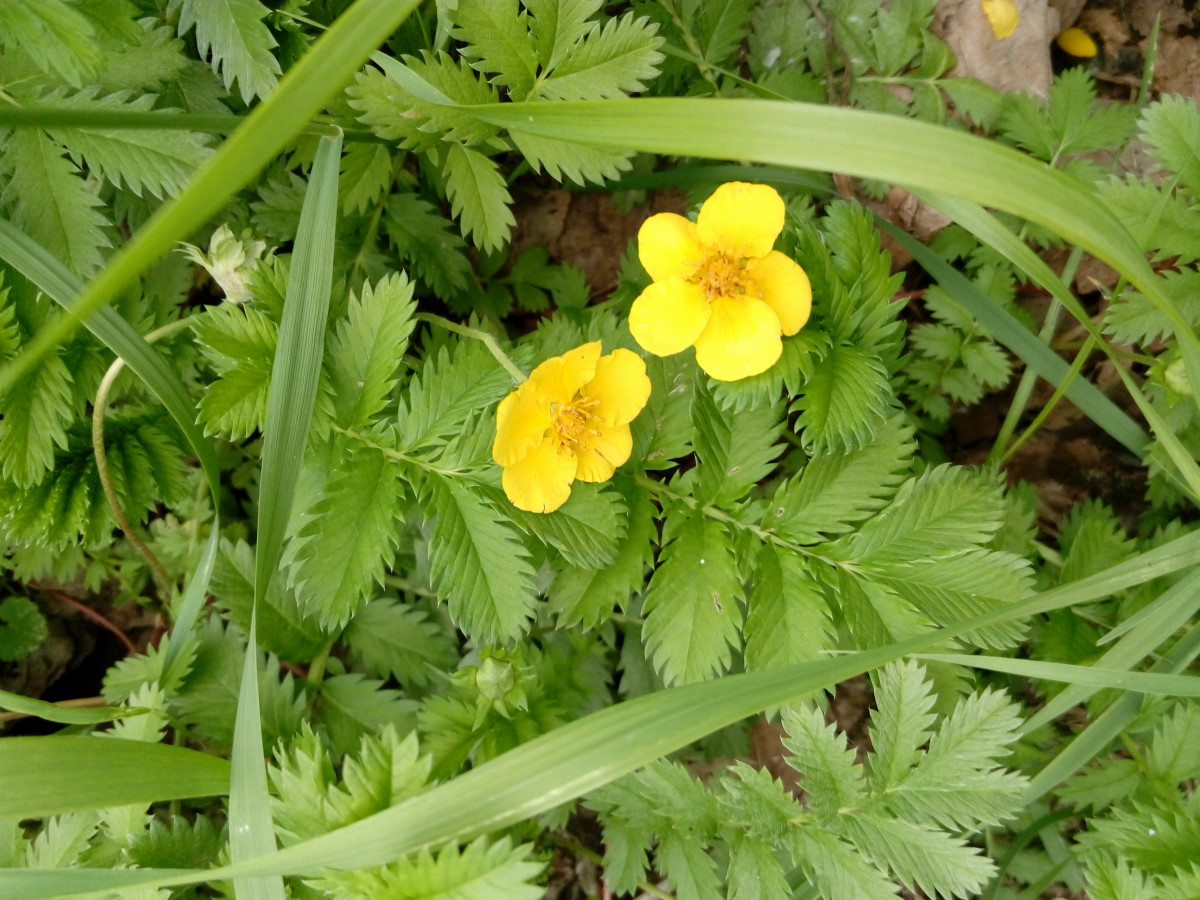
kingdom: Plantae
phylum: Tracheophyta
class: Magnoliopsida
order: Rosales
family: Rosaceae
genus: Argentina
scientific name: Argentina anserina
